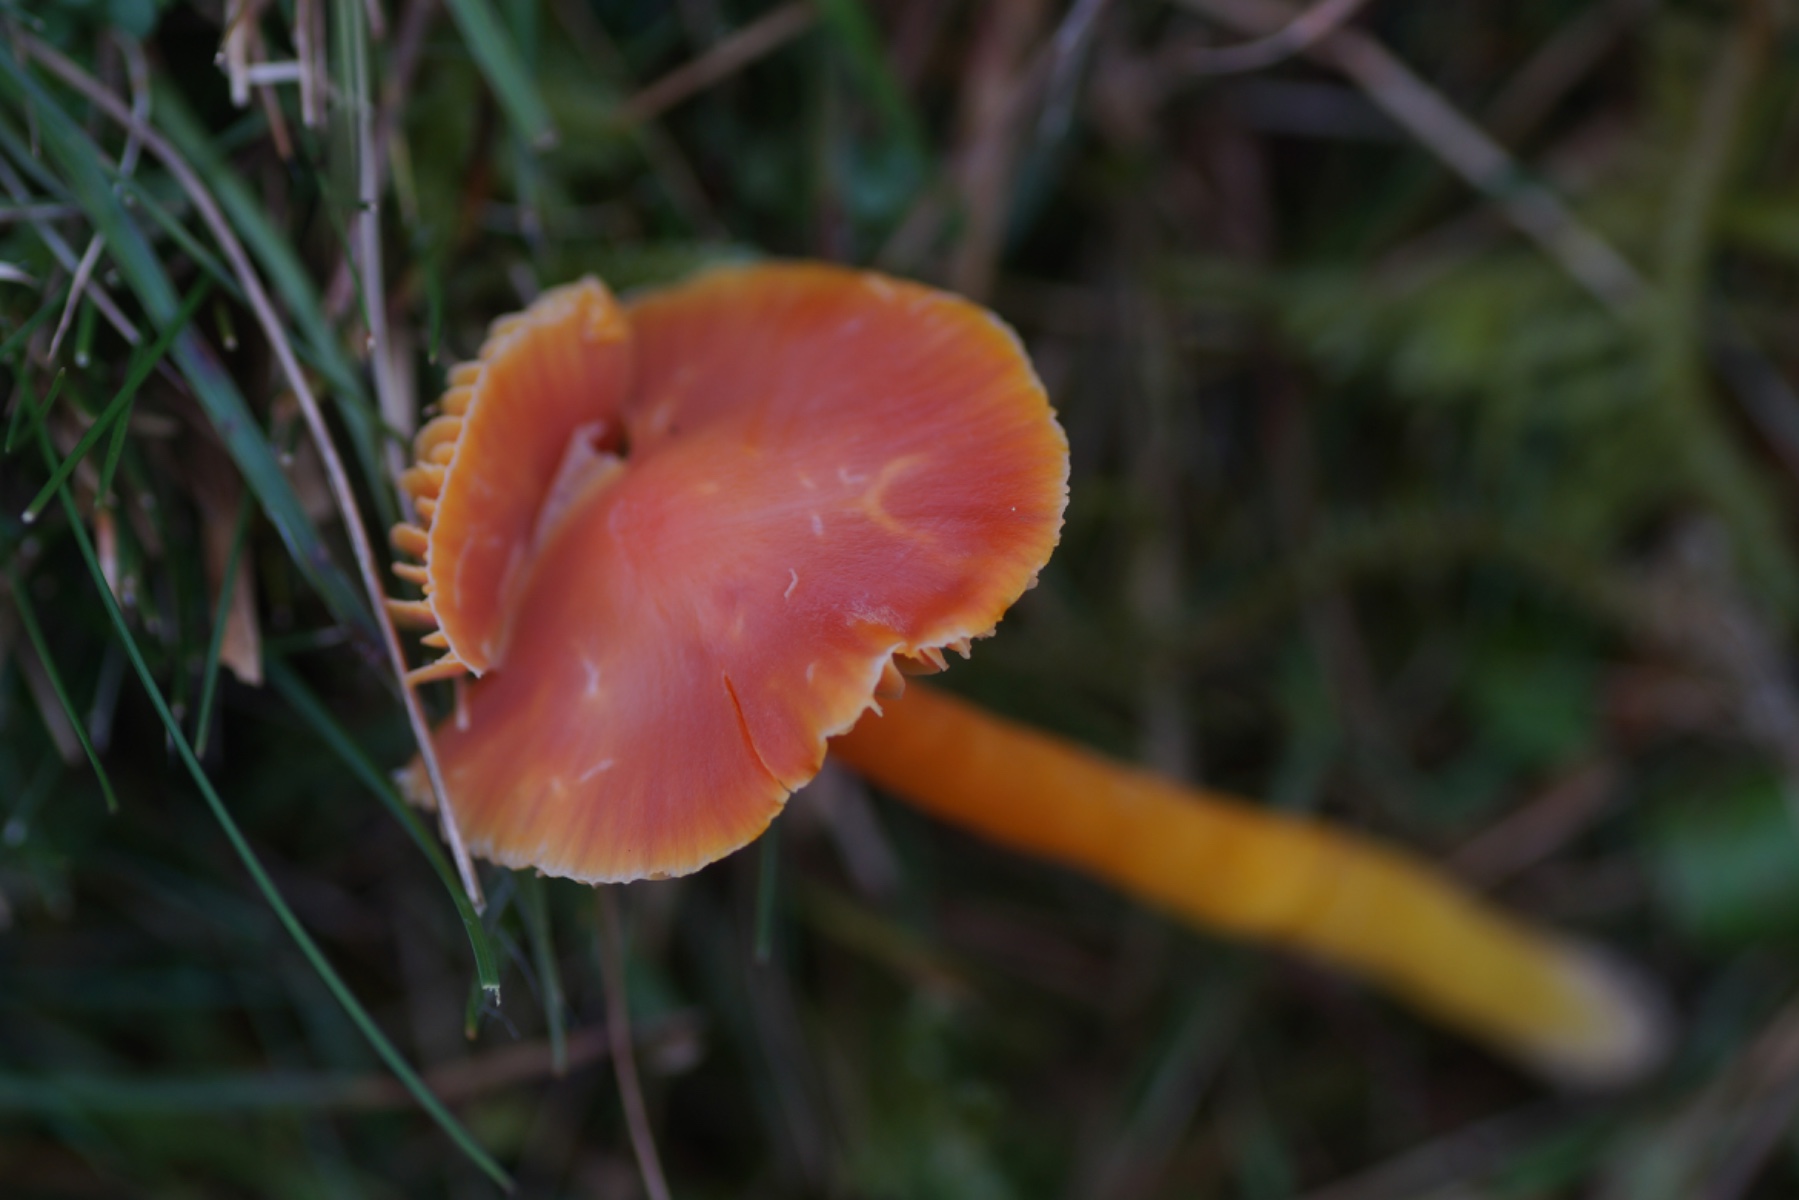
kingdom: Fungi
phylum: Basidiomycota
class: Agaricomycetes
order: Agaricales
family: Hygrophoraceae
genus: Hygrocybe
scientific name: Hygrocybe coccinea
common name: cinnober-vokshat
